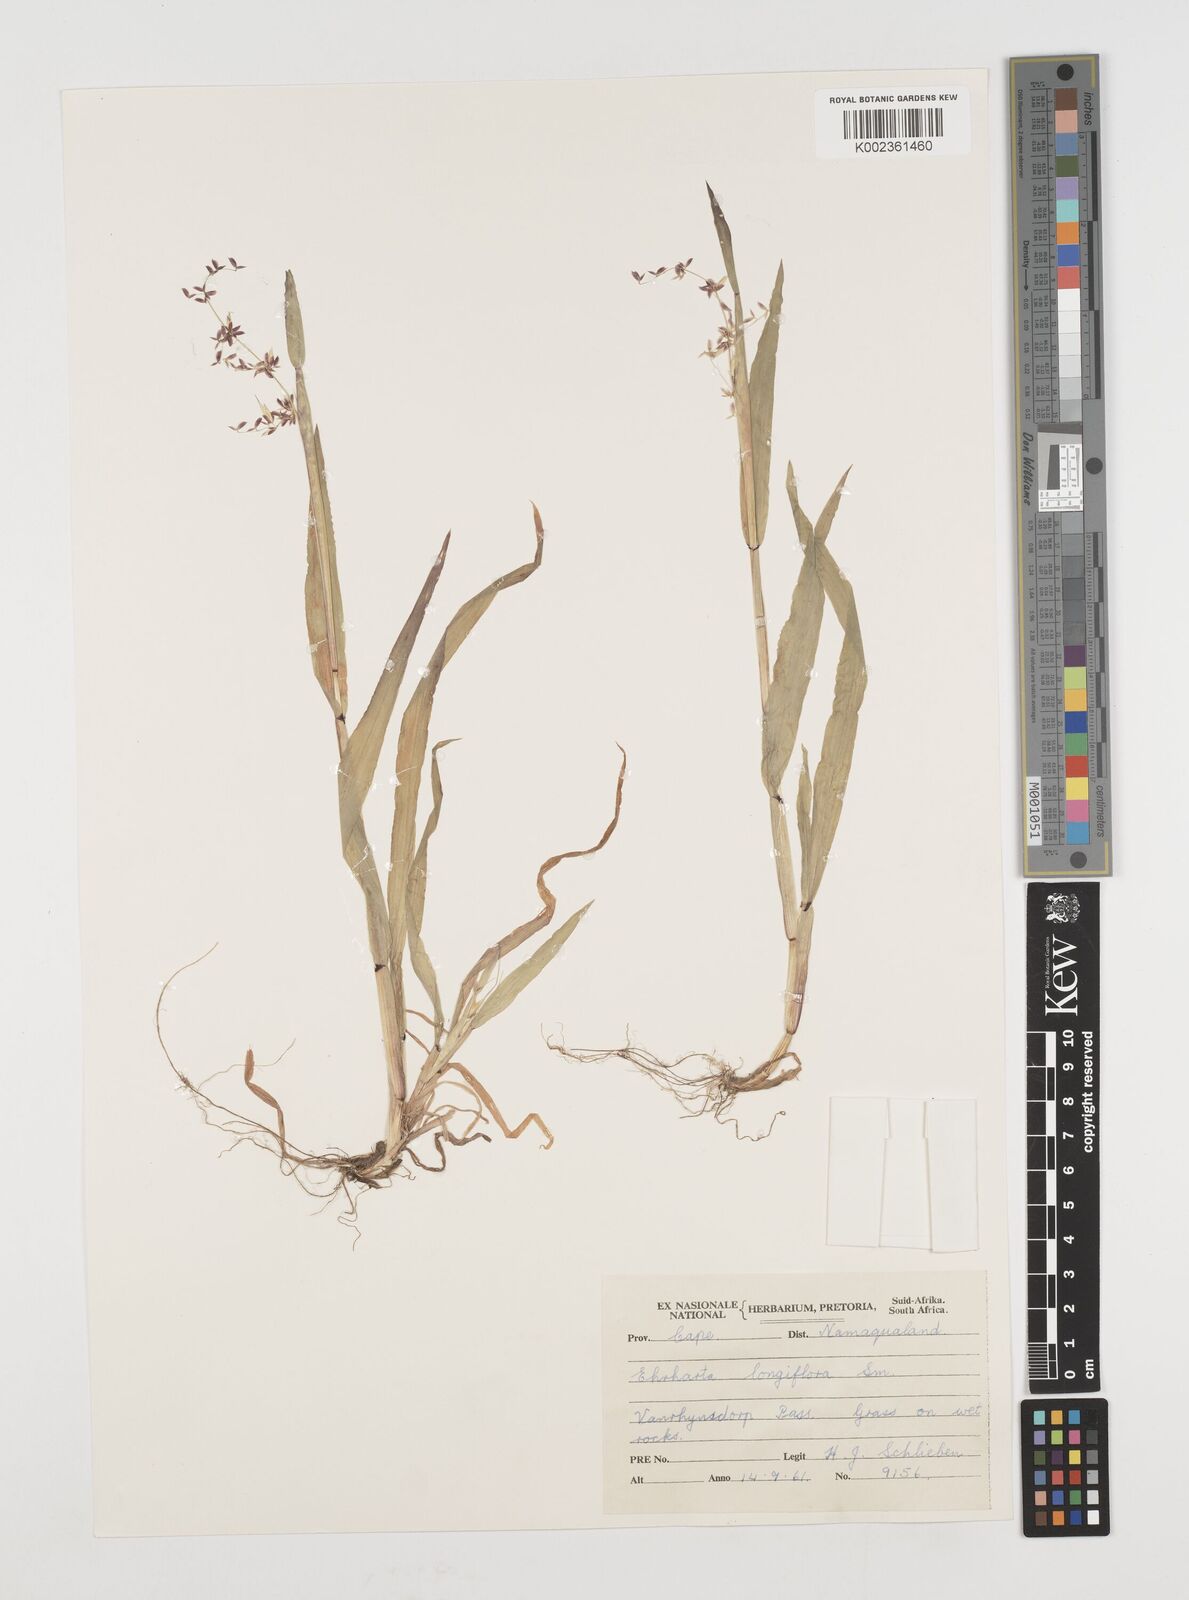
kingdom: Plantae
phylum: Tracheophyta
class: Liliopsida
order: Poales
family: Poaceae
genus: Ehrharta
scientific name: Ehrharta longiflora
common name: Longflowered veldtgrass
